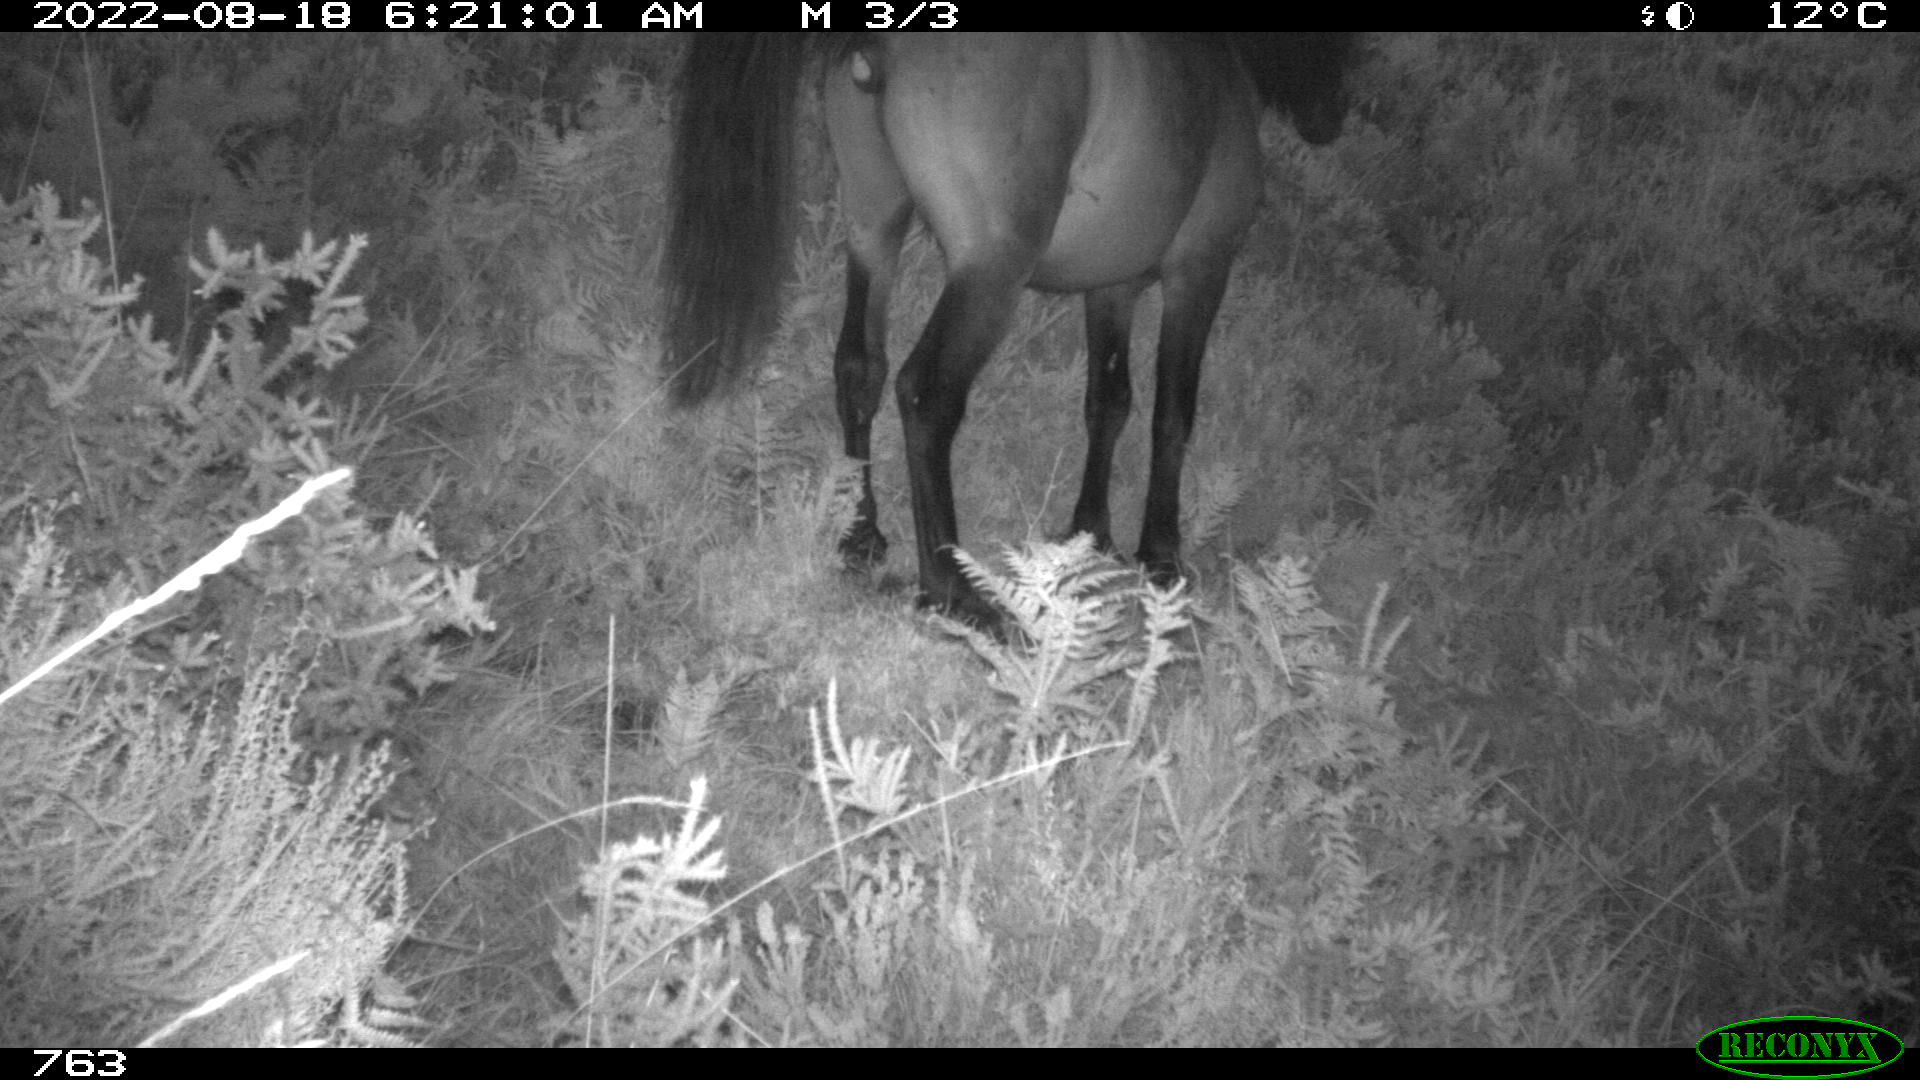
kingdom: Animalia
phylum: Chordata
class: Mammalia
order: Perissodactyla
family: Equidae
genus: Equus
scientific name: Equus caballus
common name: Horse
